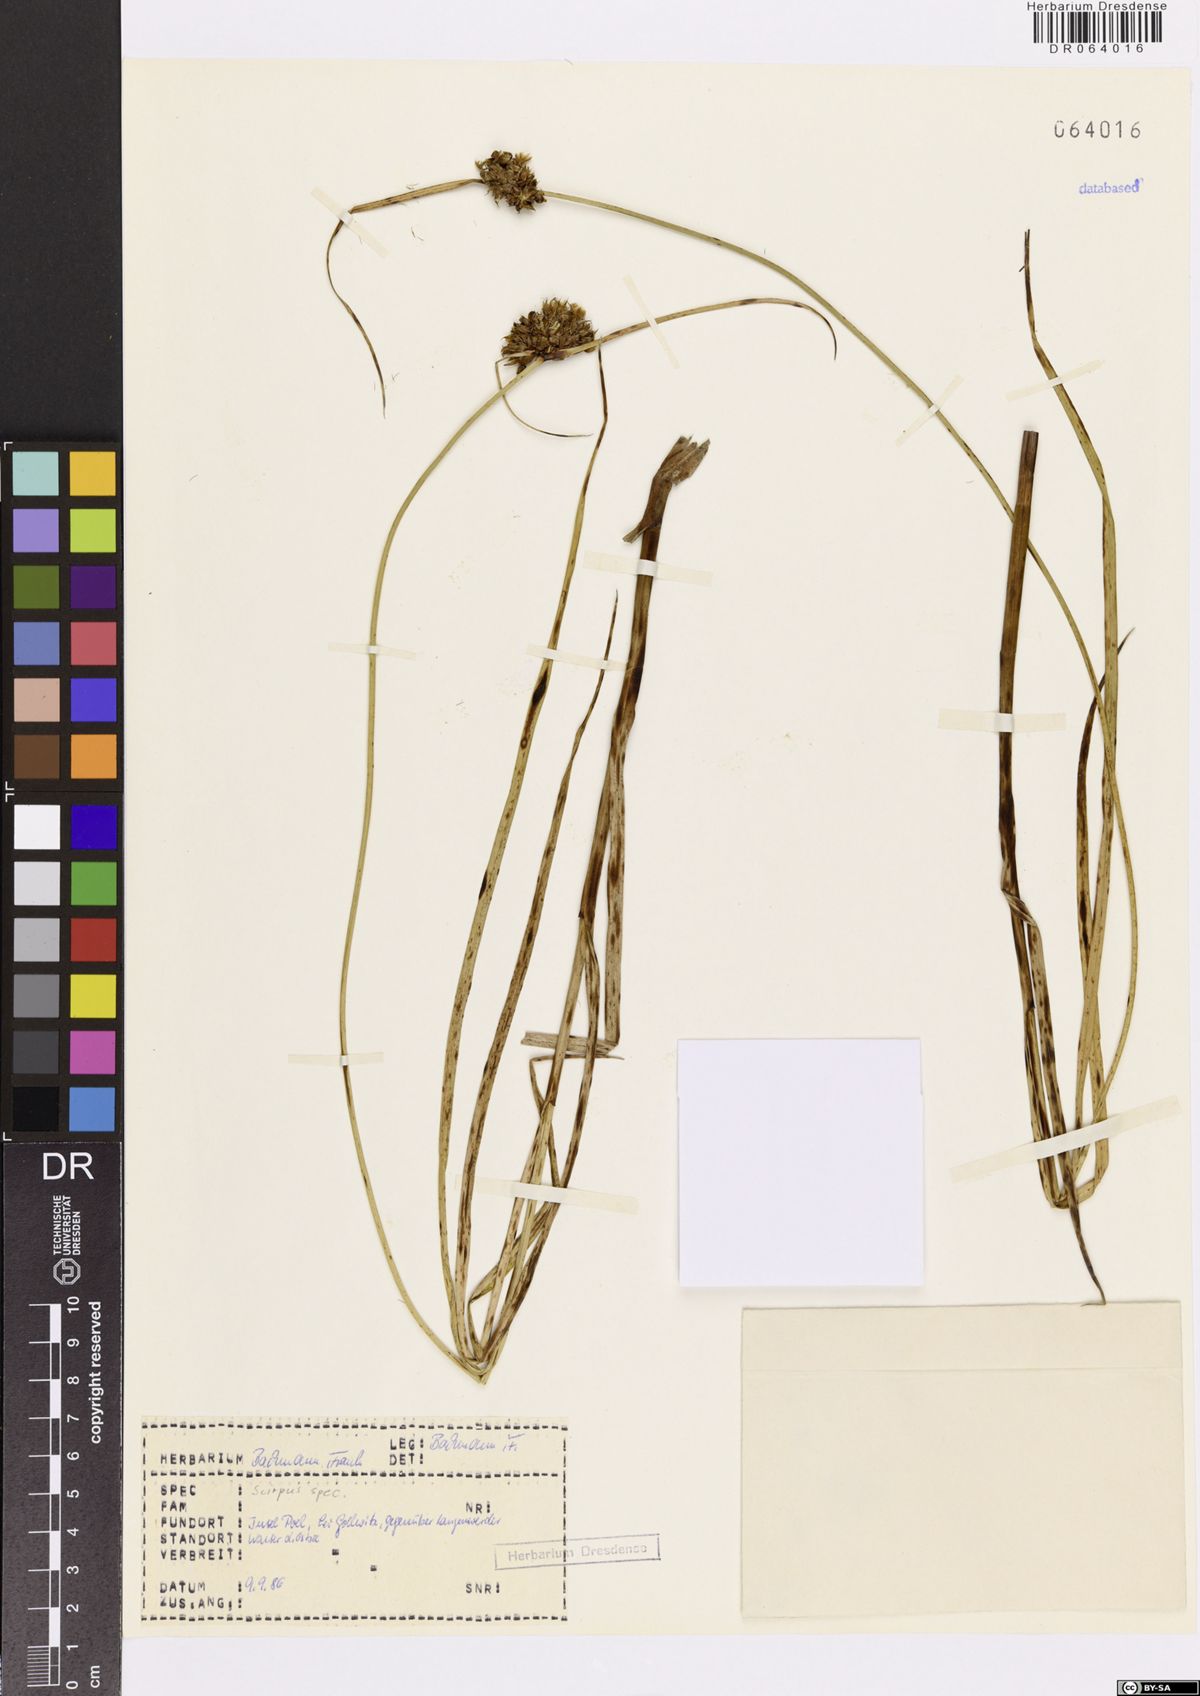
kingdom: Plantae
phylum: Tracheophyta
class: Liliopsida
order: Poales
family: Cyperaceae
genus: Scirpus
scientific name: Scirpus
